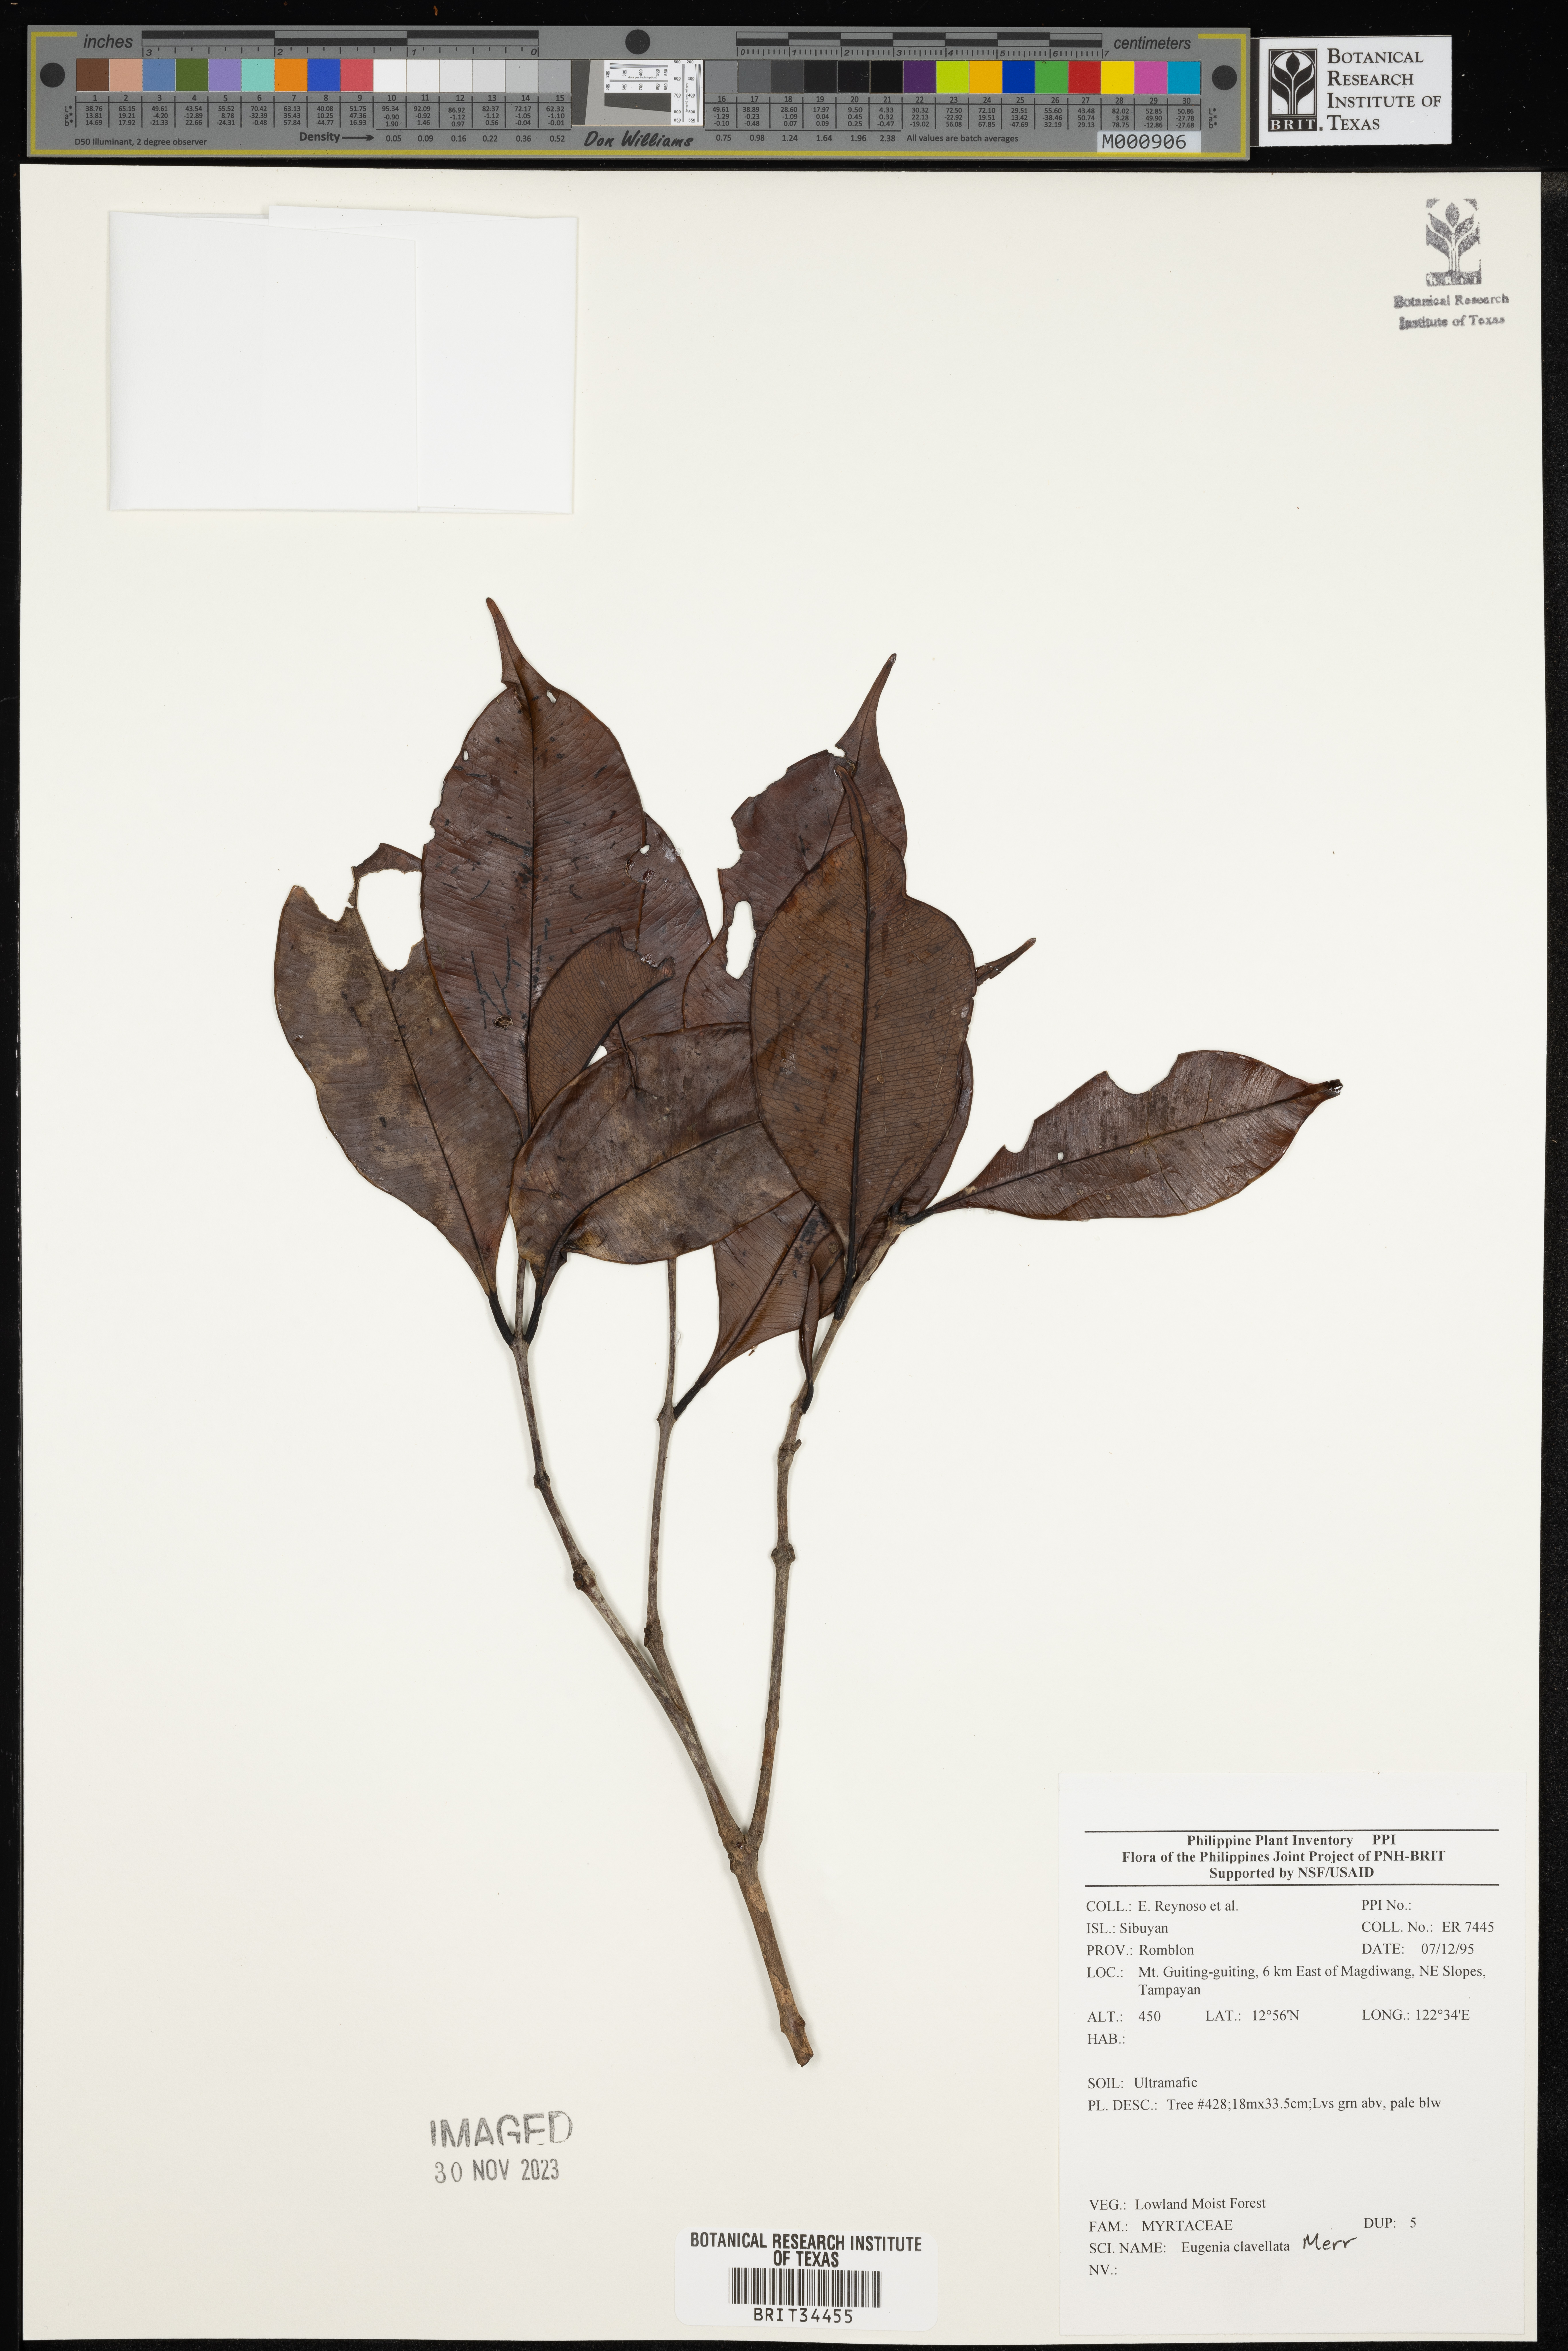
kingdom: Plantae
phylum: Tracheophyta
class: Magnoliopsida
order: Myrtales
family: Myrtaceae
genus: Eugenia
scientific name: Eugenia
